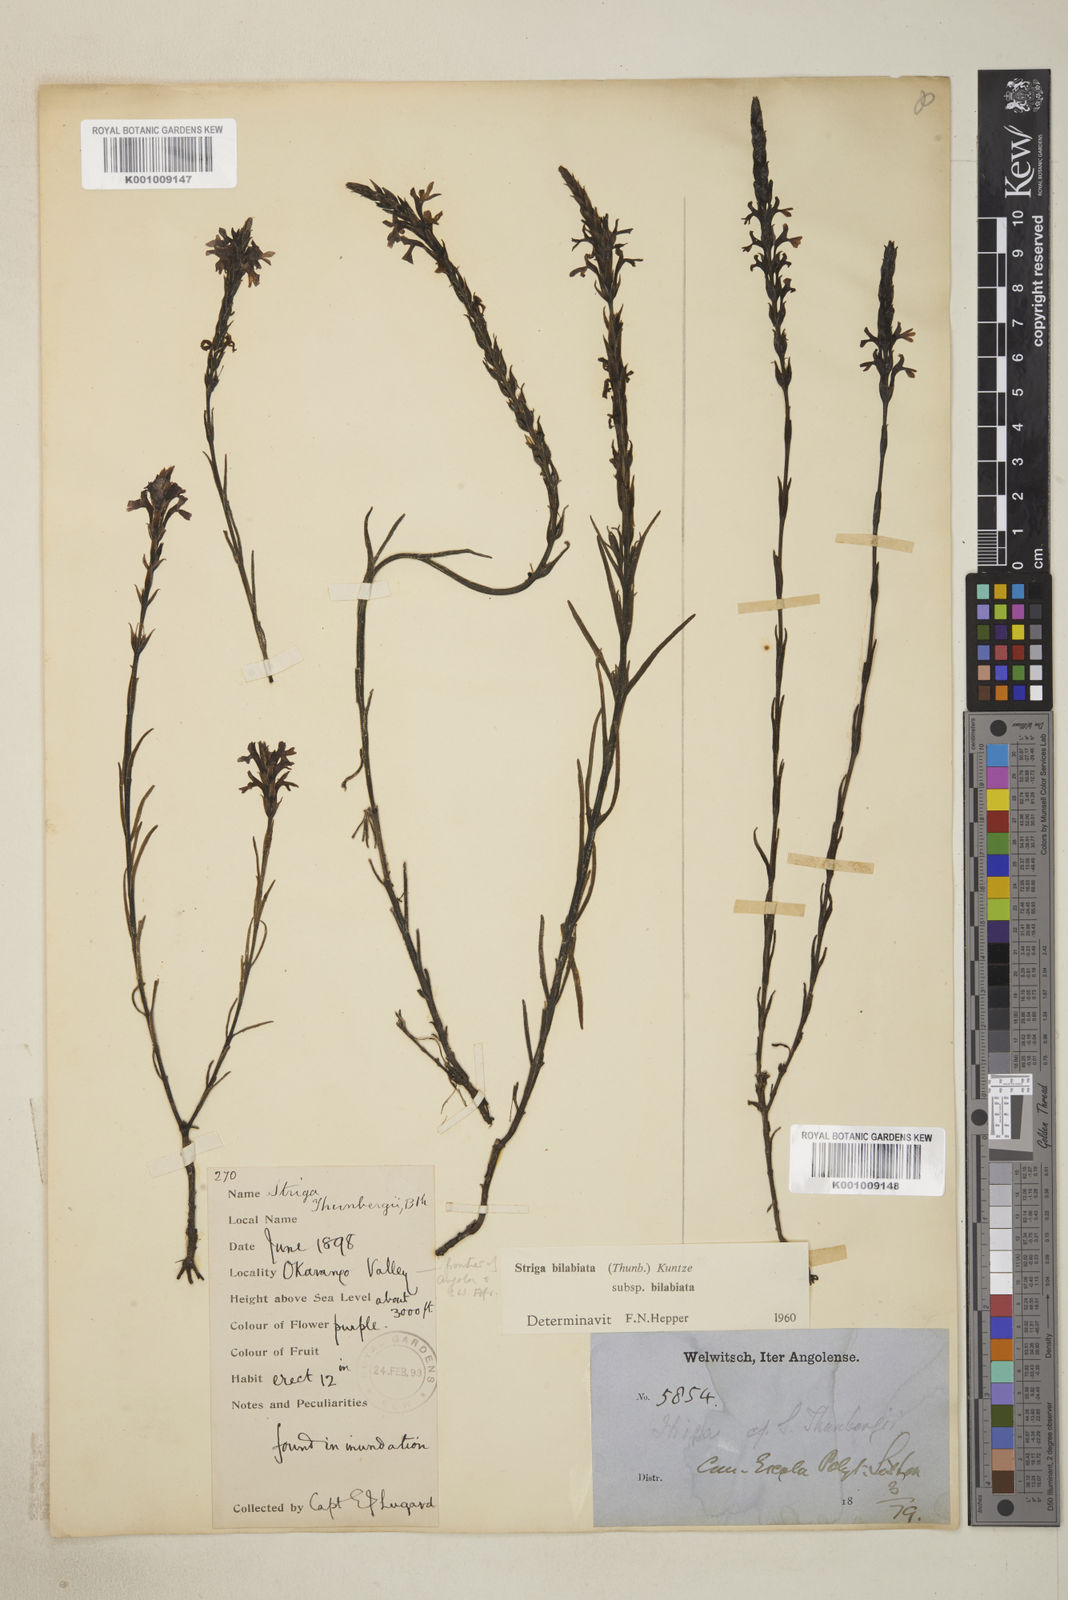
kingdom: Plantae
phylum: Tracheophyta
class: Magnoliopsida
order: Lamiales
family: Orobanchaceae
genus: Striga
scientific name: Striga bilabiata
